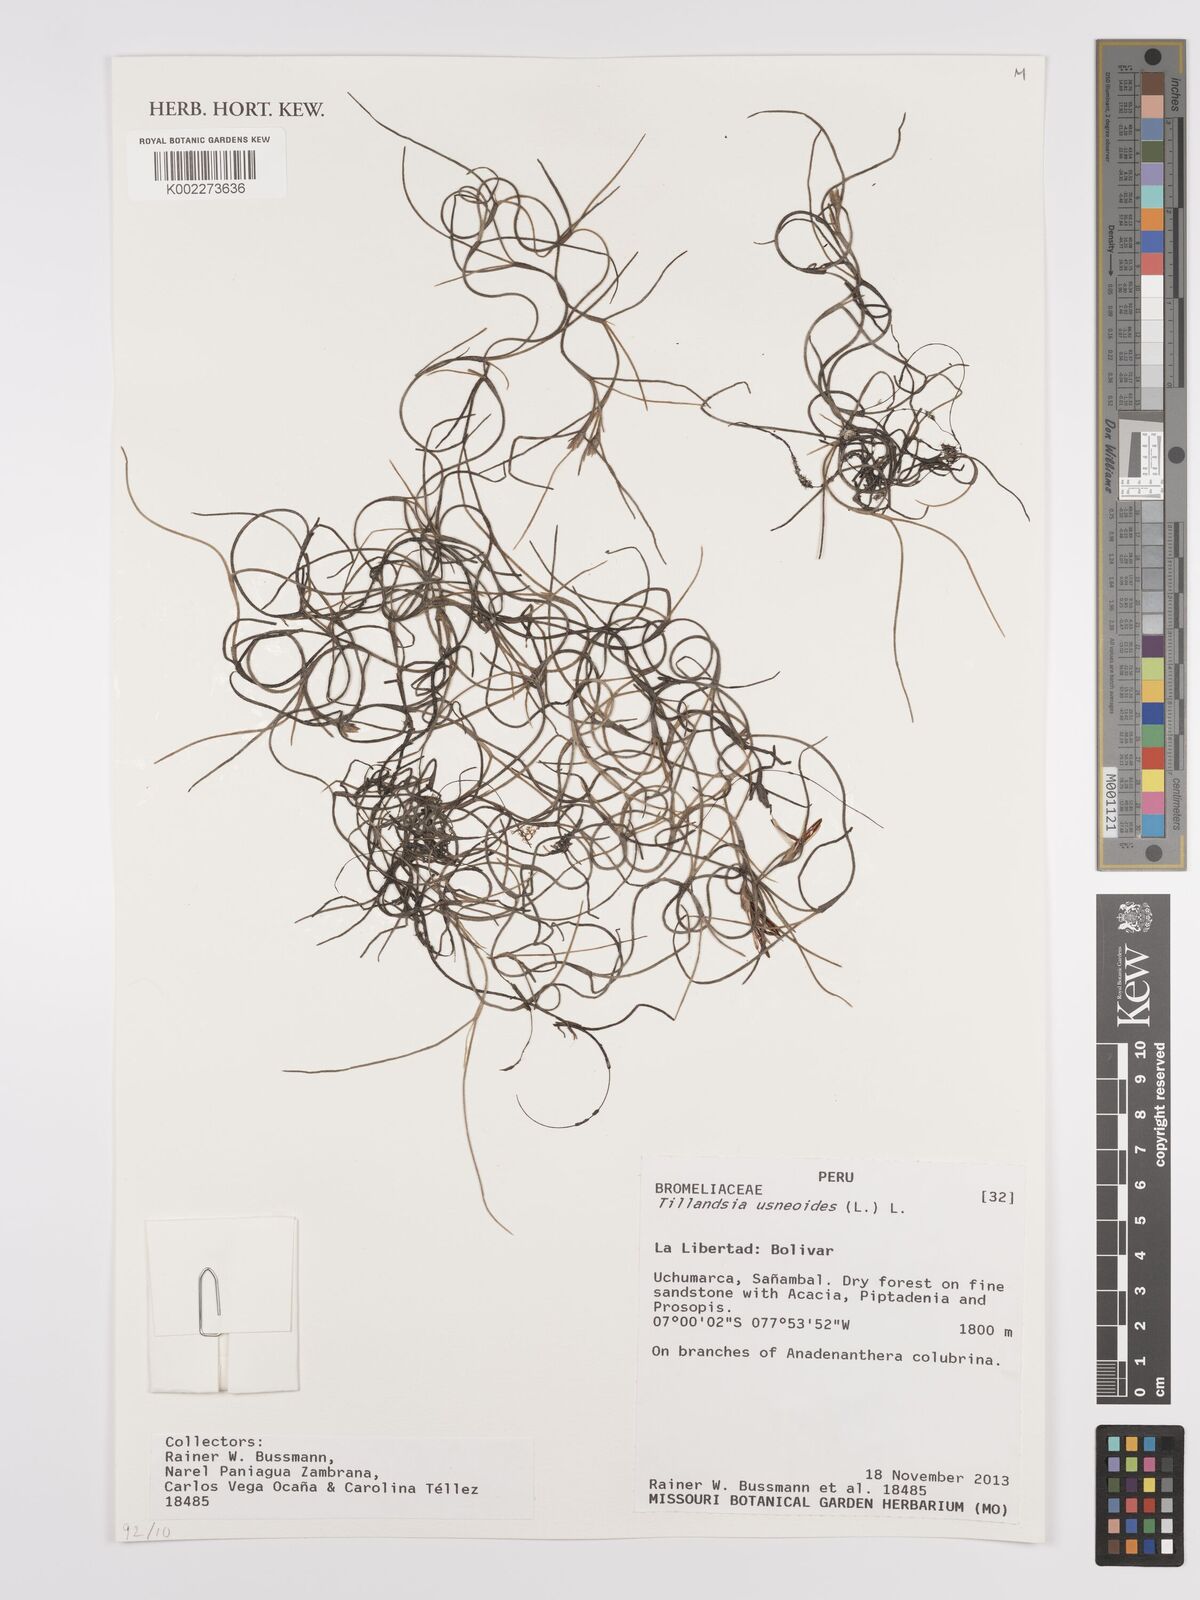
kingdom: Plantae
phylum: Tracheophyta
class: Liliopsida
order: Poales
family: Bromeliaceae
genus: Tillandsia
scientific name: Tillandsia usneoides
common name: Spanish moss
